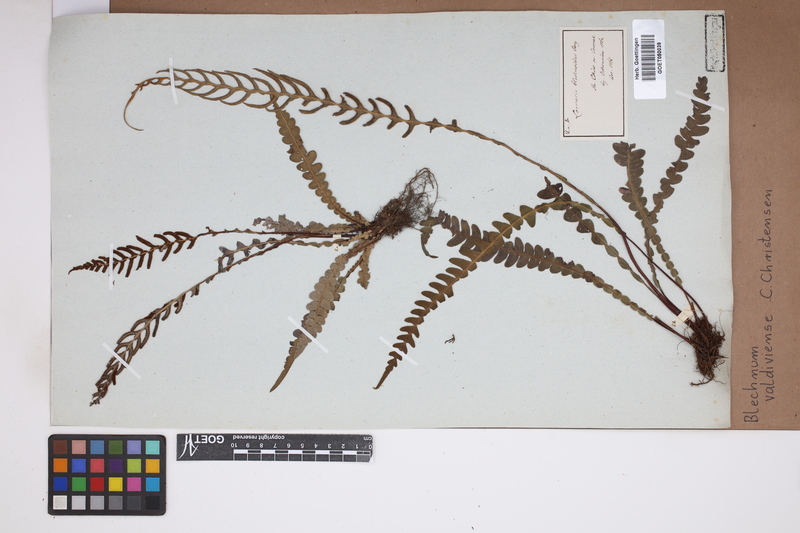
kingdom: Plantae
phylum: Tracheophyta
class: Polypodiopsida
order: Polypodiales
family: Blechnaceae
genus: Austroblechnum
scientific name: Austroblechnum leyboldtianum
